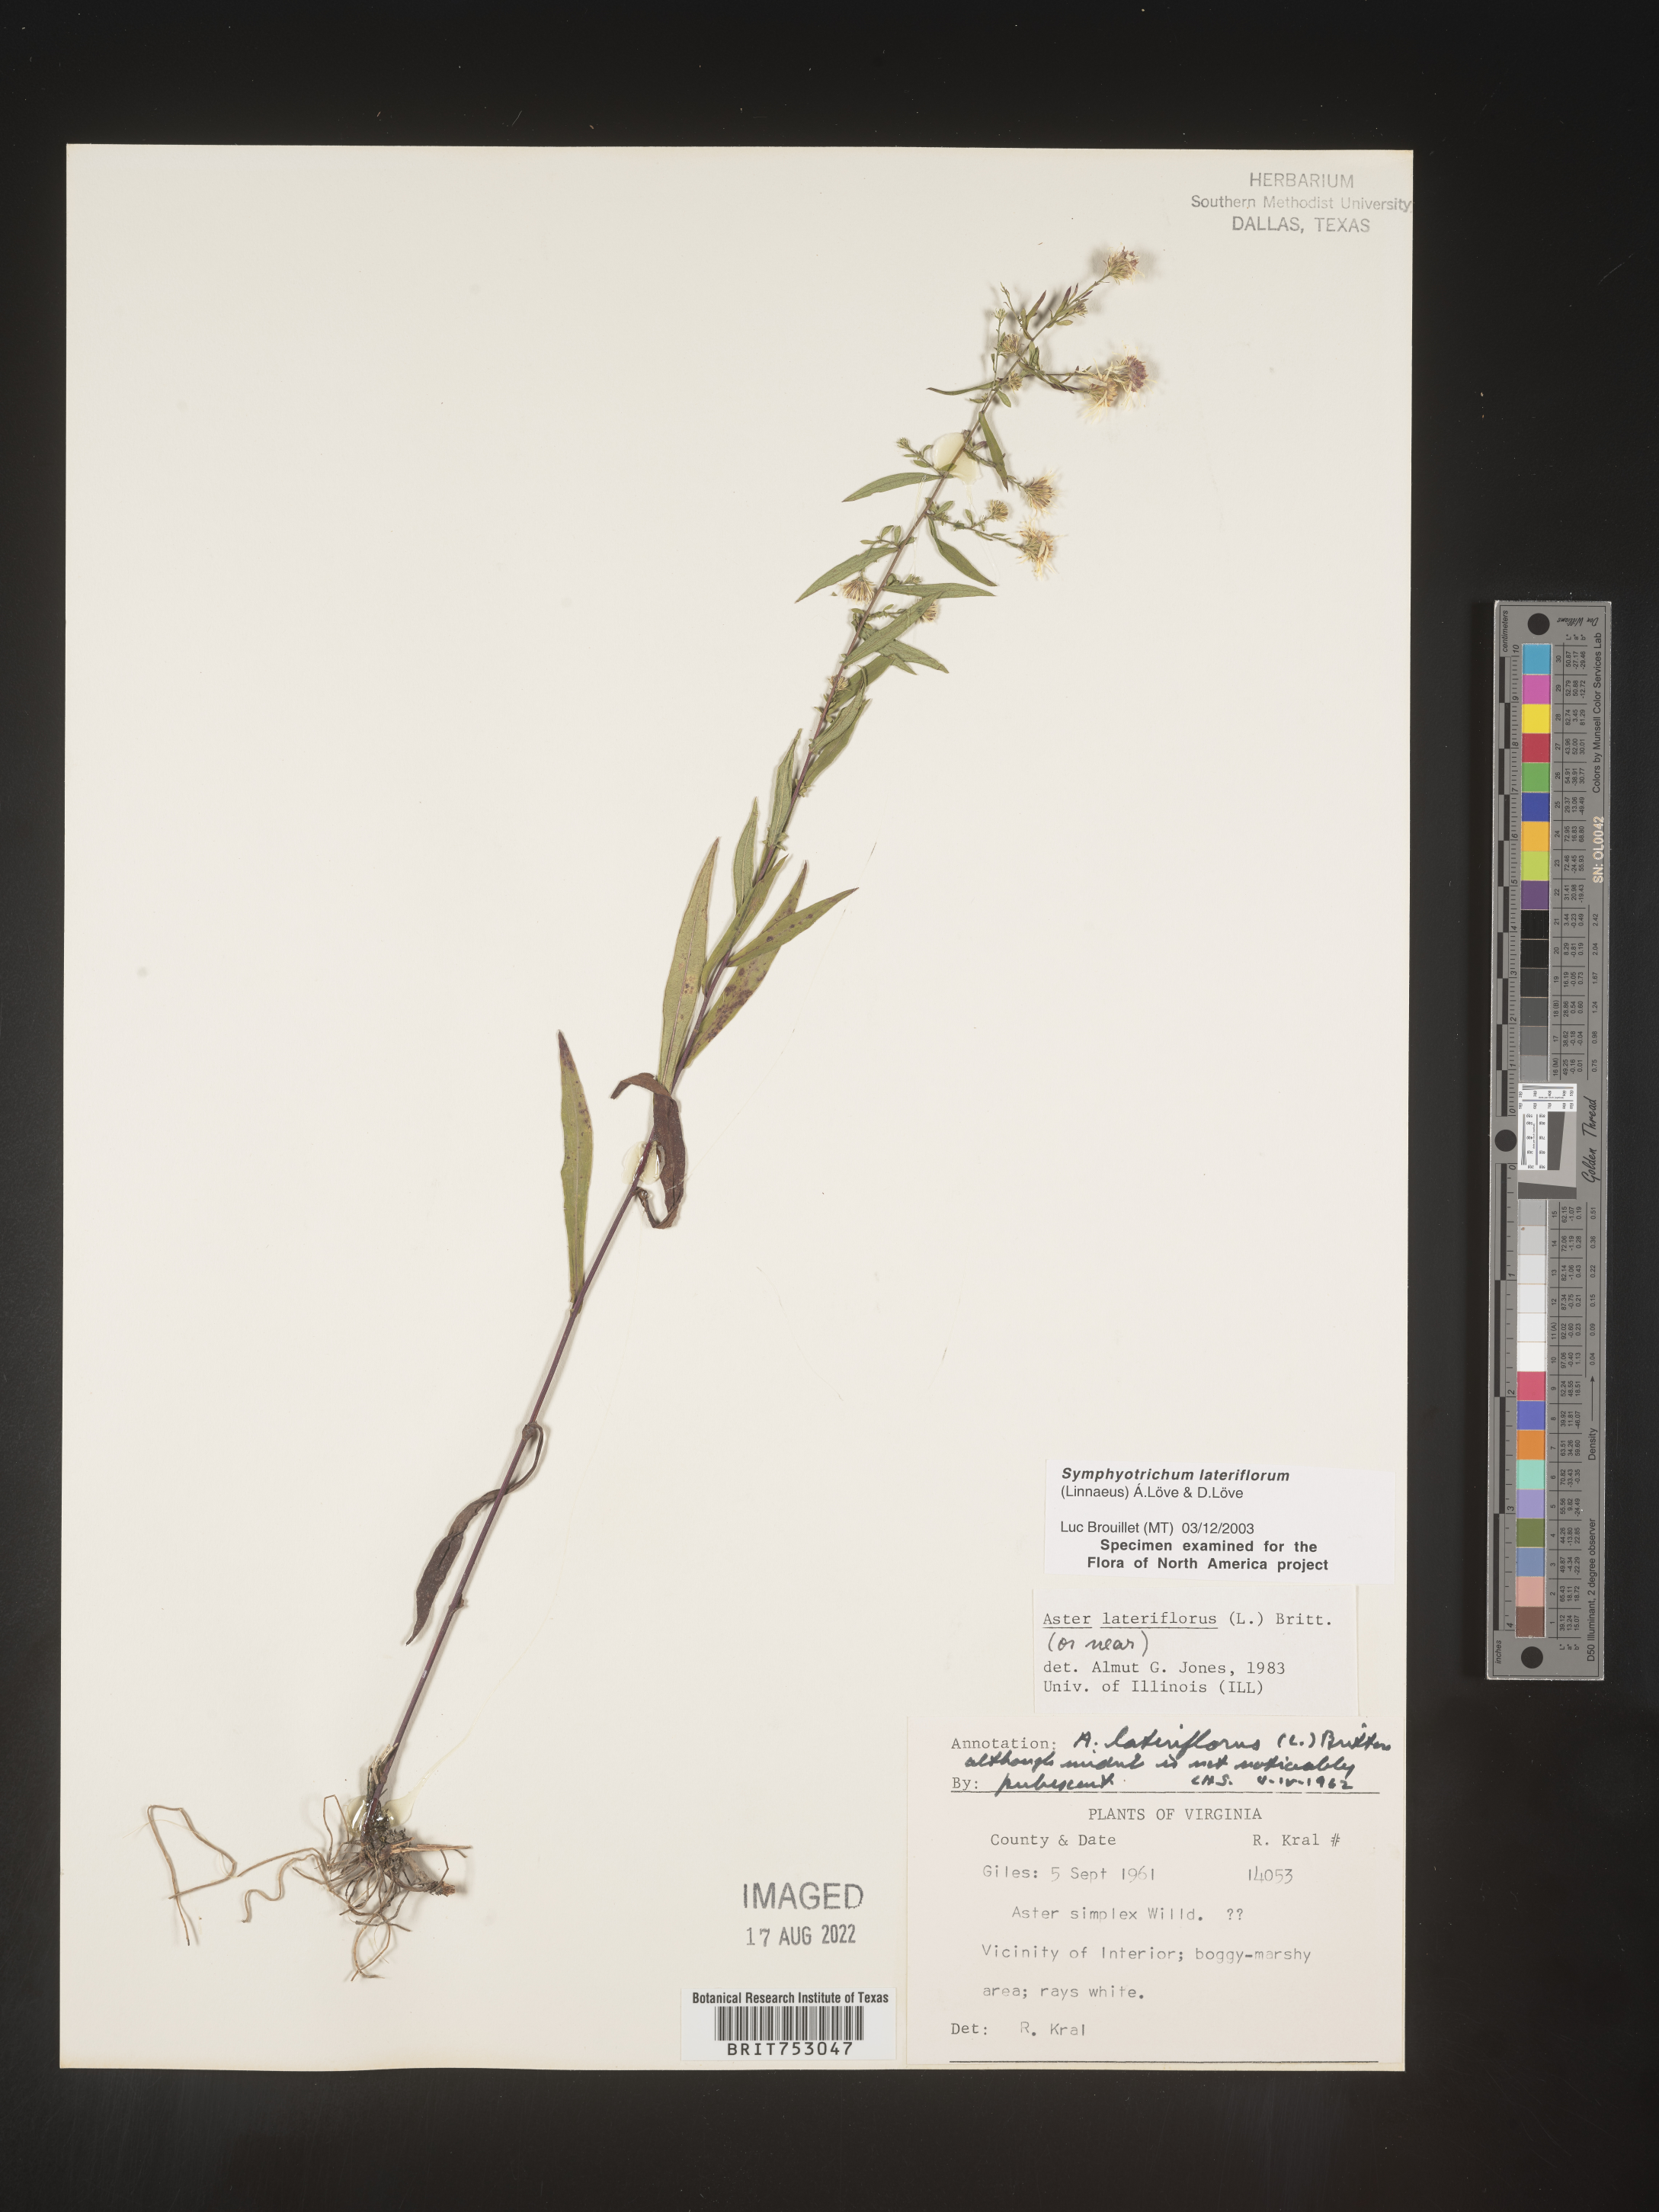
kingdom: Plantae
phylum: Tracheophyta
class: Magnoliopsida
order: Asterales
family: Asteraceae
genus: Symphyotrichum
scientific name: Symphyotrichum lateriflorum
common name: Calico aster
